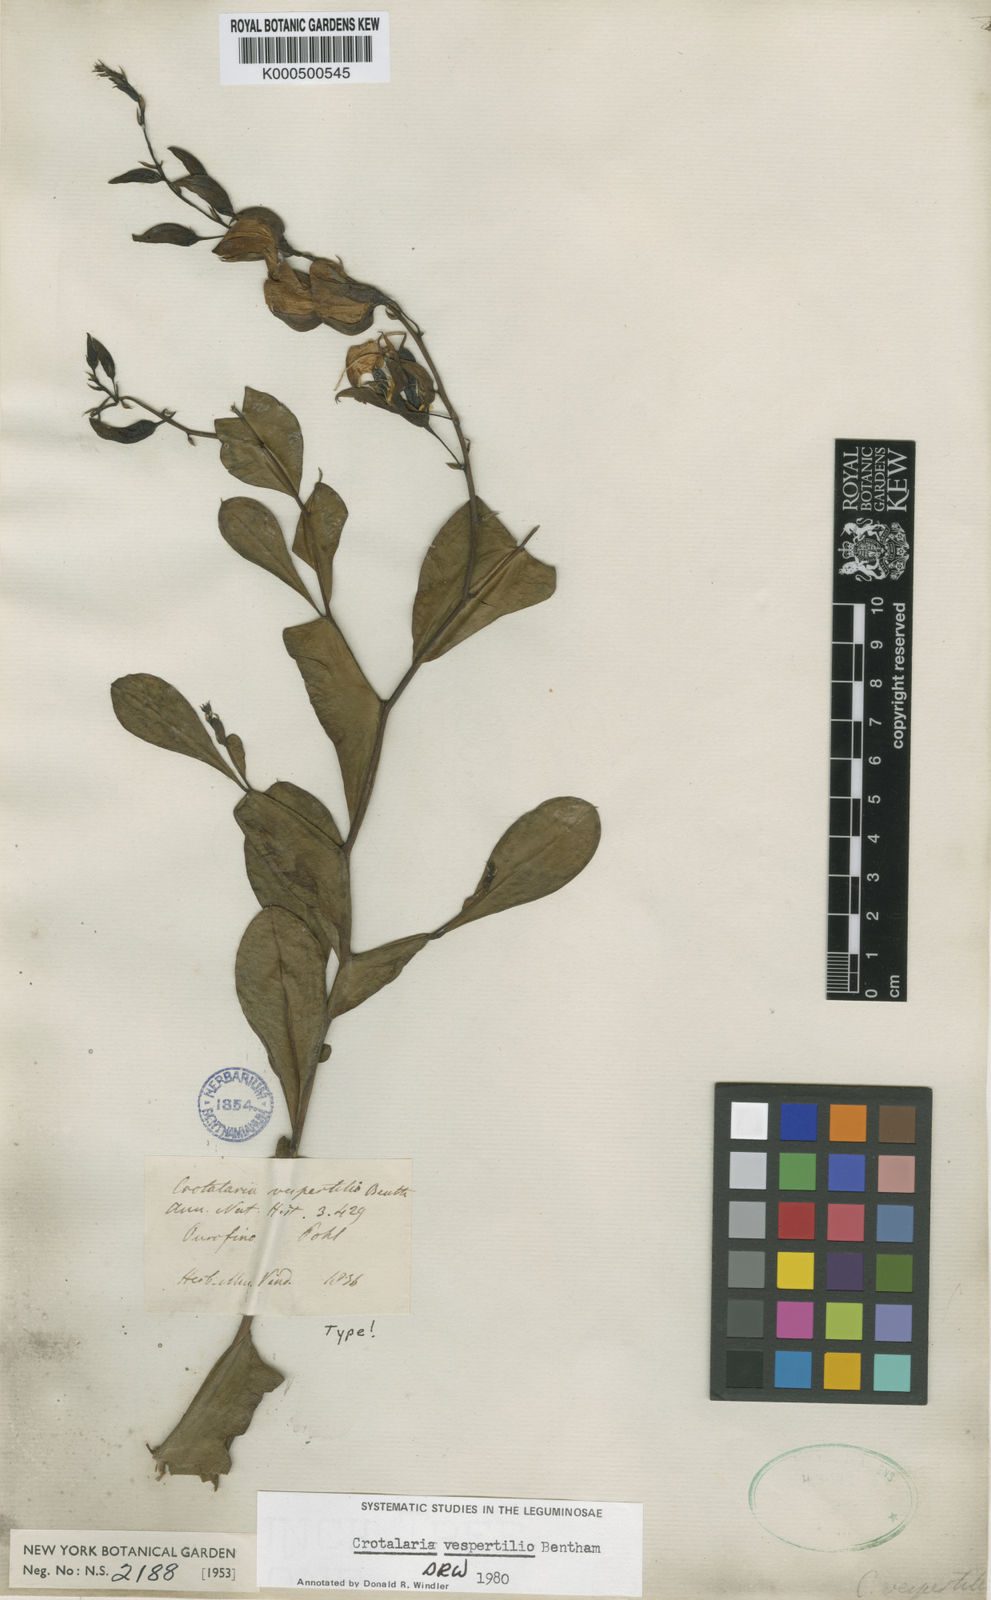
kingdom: Plantae
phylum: Tracheophyta
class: Magnoliopsida
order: Fabales
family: Fabaceae
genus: Crotalaria
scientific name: Crotalaria vespertilio
